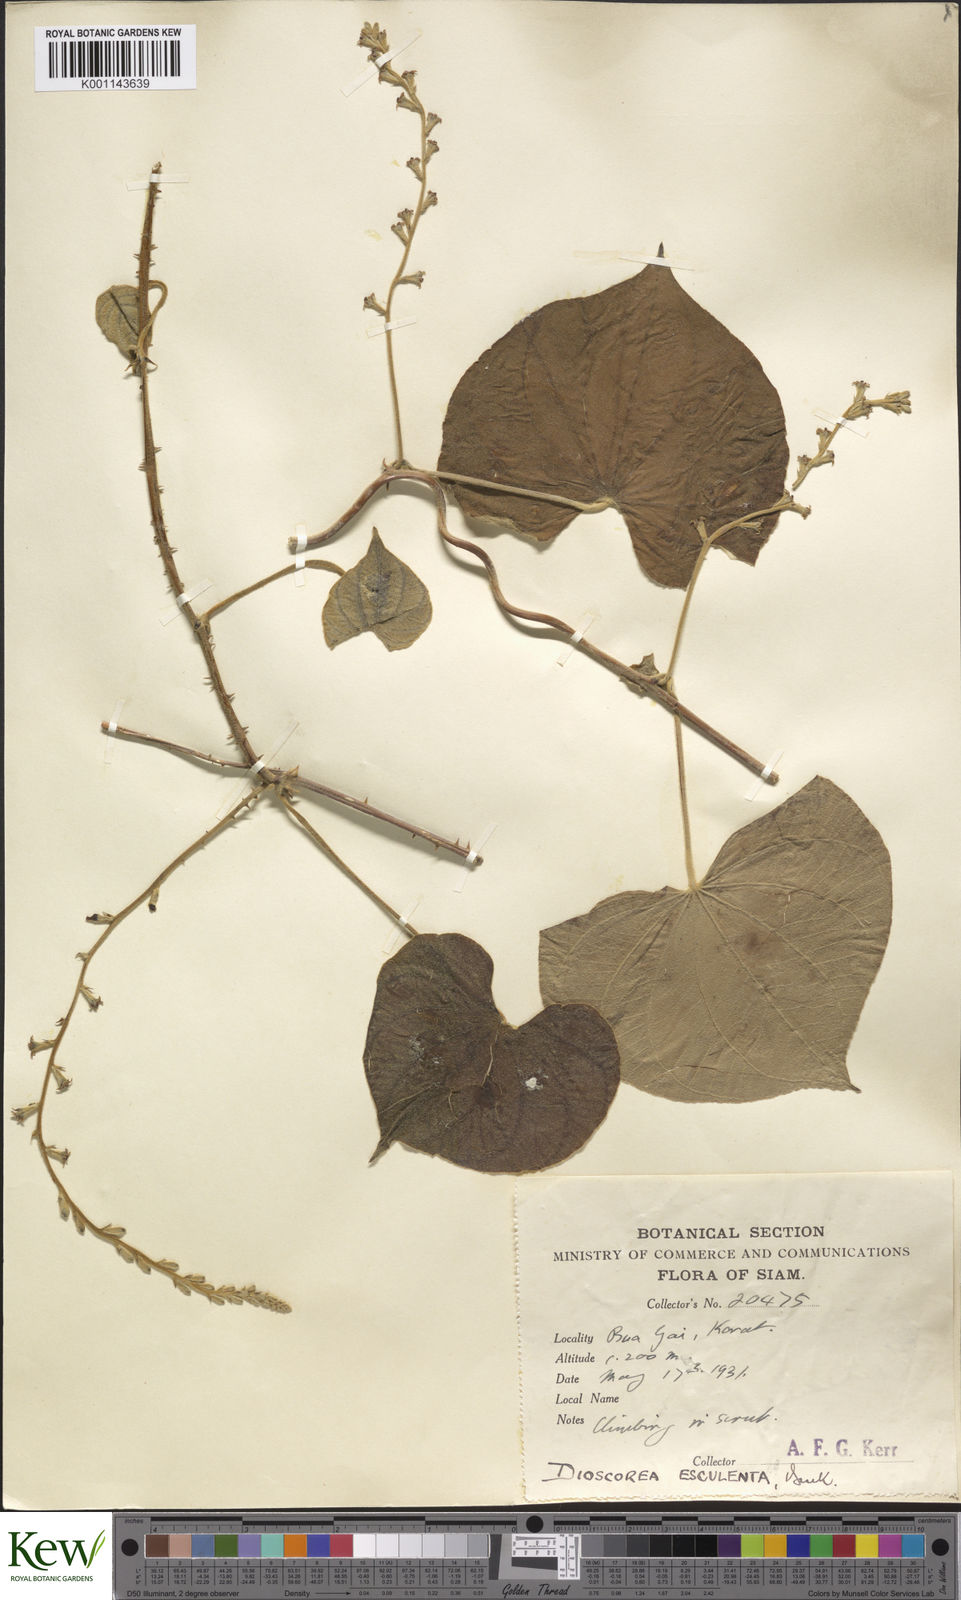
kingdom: Plantae
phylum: Tracheophyta
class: Liliopsida
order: Dioscoreales
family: Dioscoreaceae
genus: Dioscorea
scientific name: Dioscorea esculenta
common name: Chinese yam
